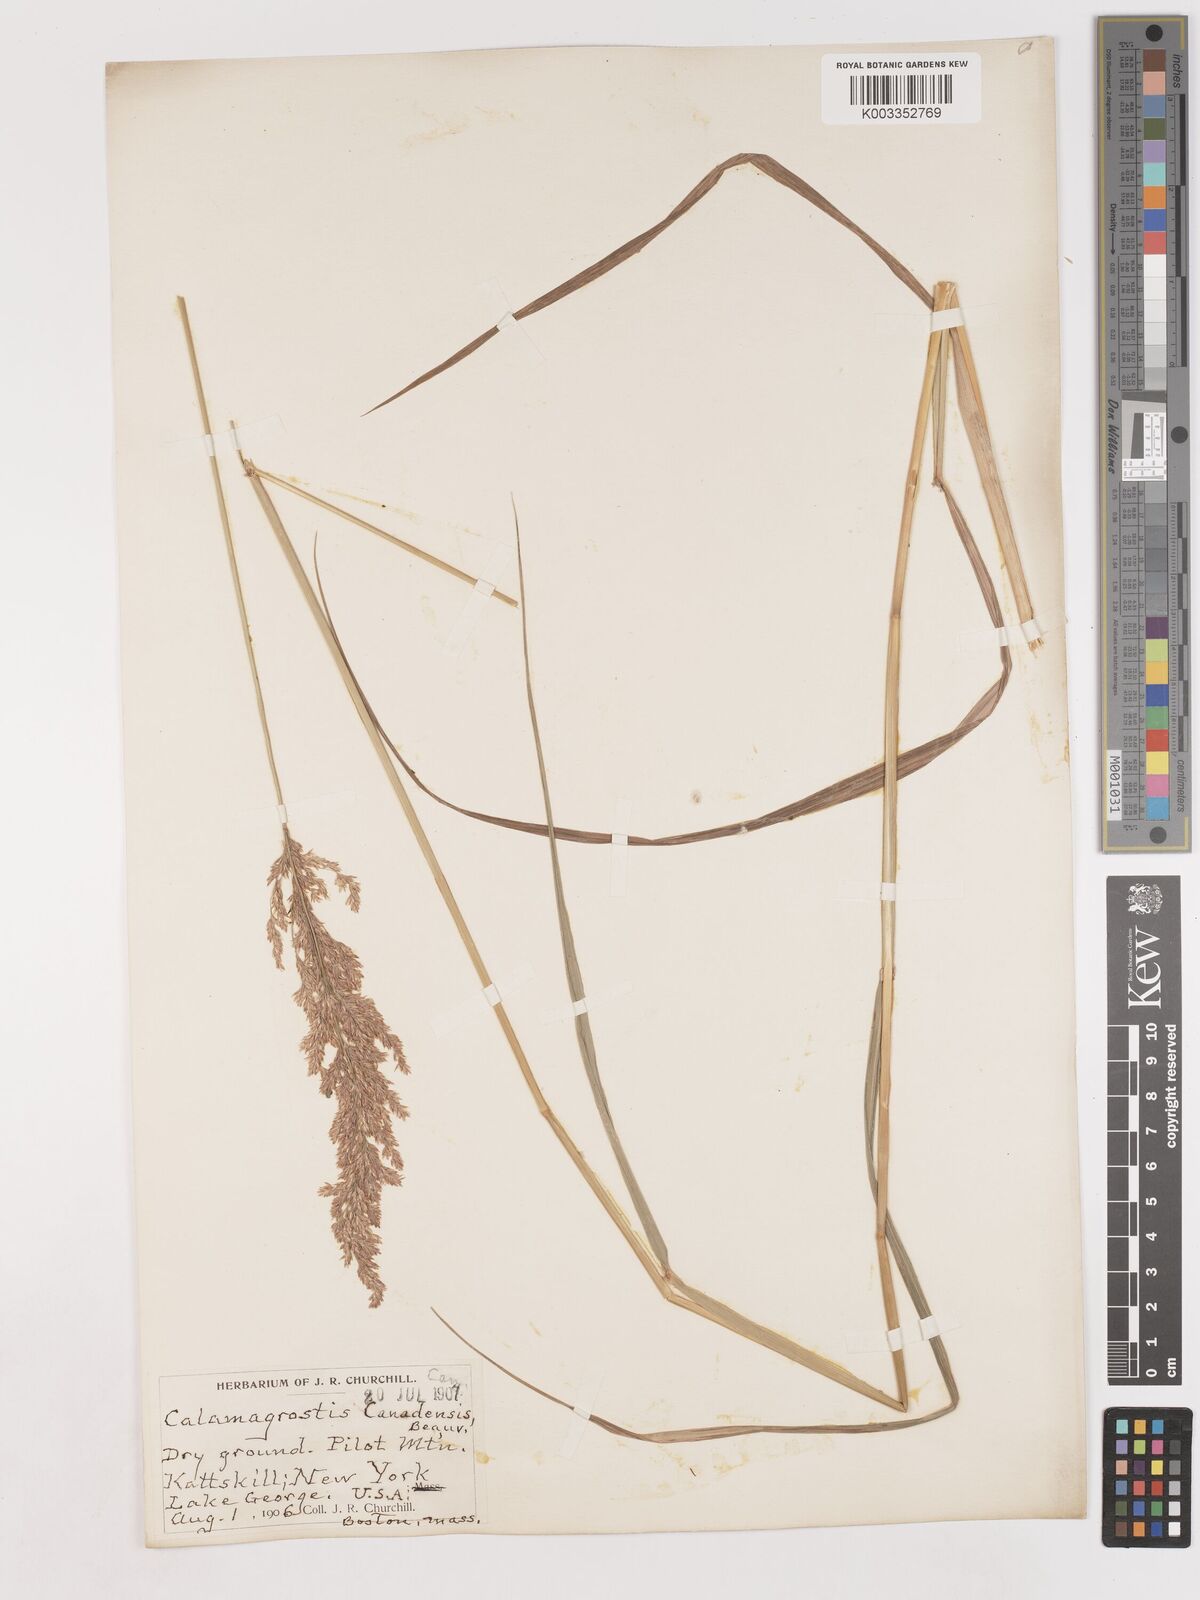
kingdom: Plantae
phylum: Tracheophyta
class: Liliopsida
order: Poales
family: Poaceae
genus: Calamagrostis
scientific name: Calamagrostis canadensis
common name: Canada bluejoint
